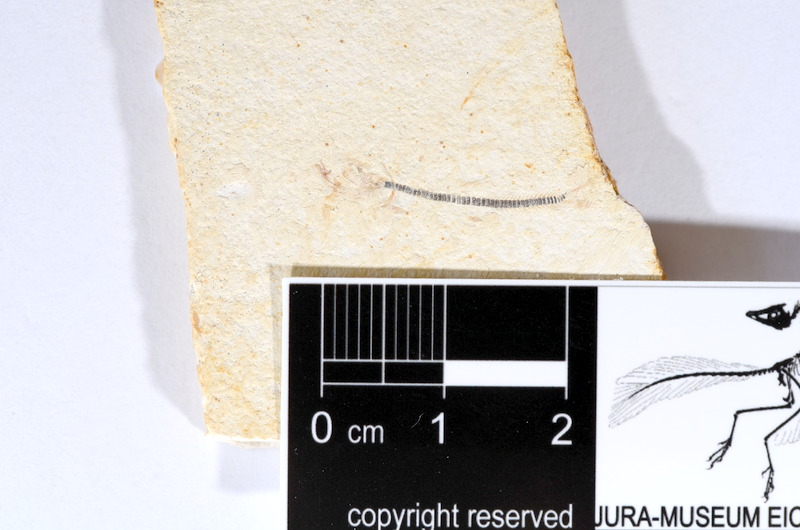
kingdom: Animalia
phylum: Chordata
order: Salmoniformes
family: Orthogonikleithridae
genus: Orthogonikleithrus
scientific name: Orthogonikleithrus hoelli
